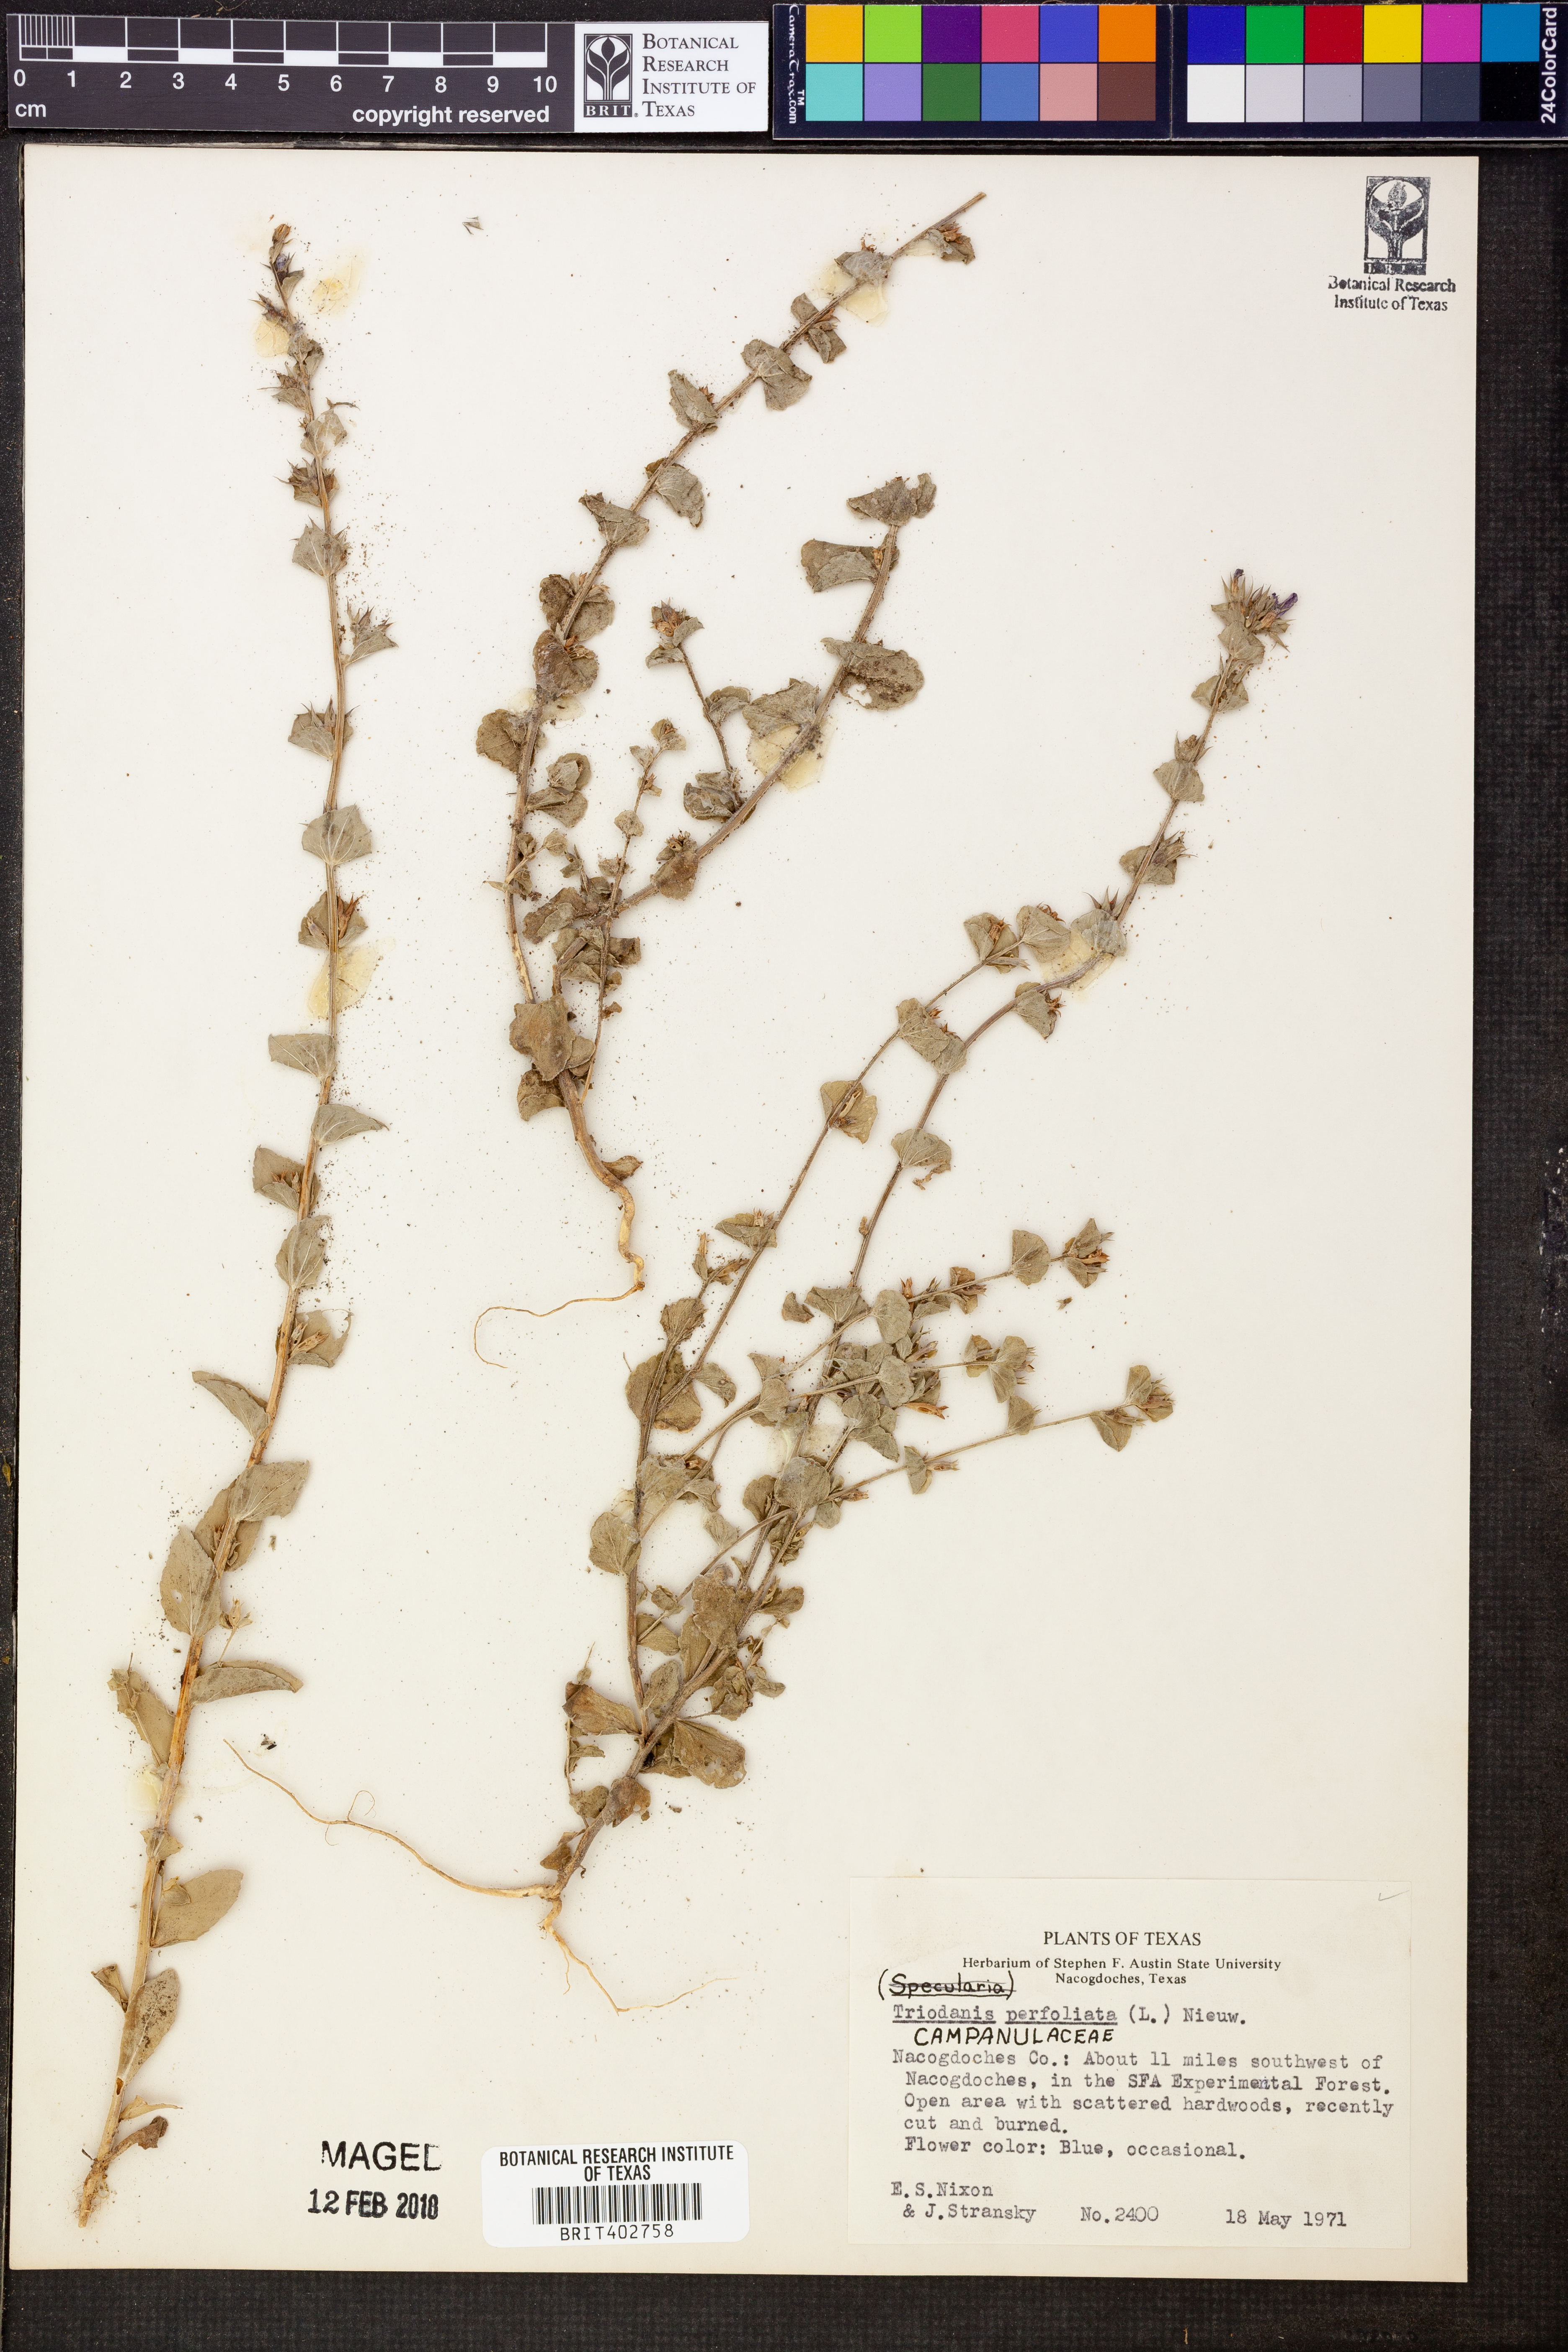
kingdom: Plantae
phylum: Tracheophyta
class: Magnoliopsida
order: Asterales
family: Campanulaceae
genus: Triodanis
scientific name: Triodanis perfoliata
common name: Clasping venus' looking-glass
